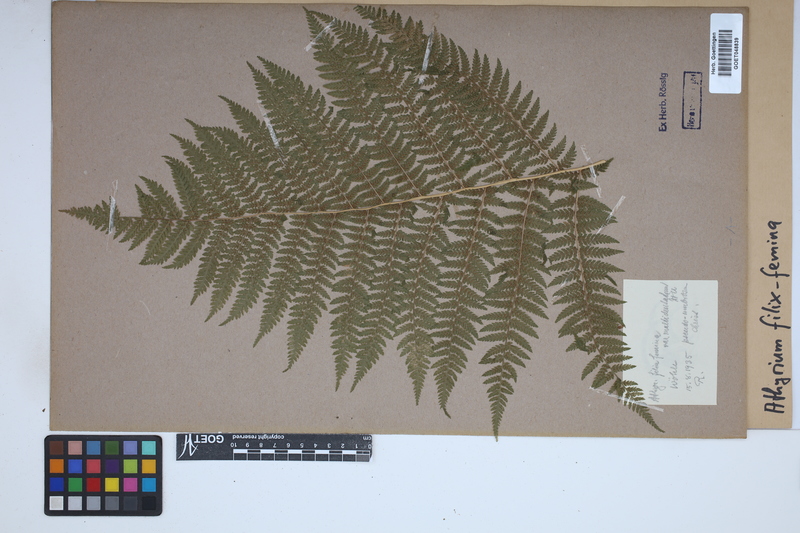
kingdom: Plantae
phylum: Tracheophyta
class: Polypodiopsida
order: Polypodiales
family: Athyriaceae
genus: Athyrium
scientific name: Athyrium filix-femina
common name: Lady fern
